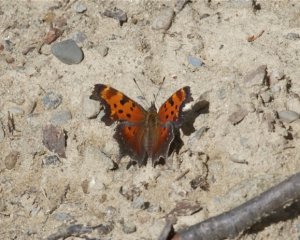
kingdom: Animalia
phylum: Arthropoda
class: Insecta
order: Lepidoptera
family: Nymphalidae
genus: Polygonia
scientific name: Polygonia progne
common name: Gray Comma
